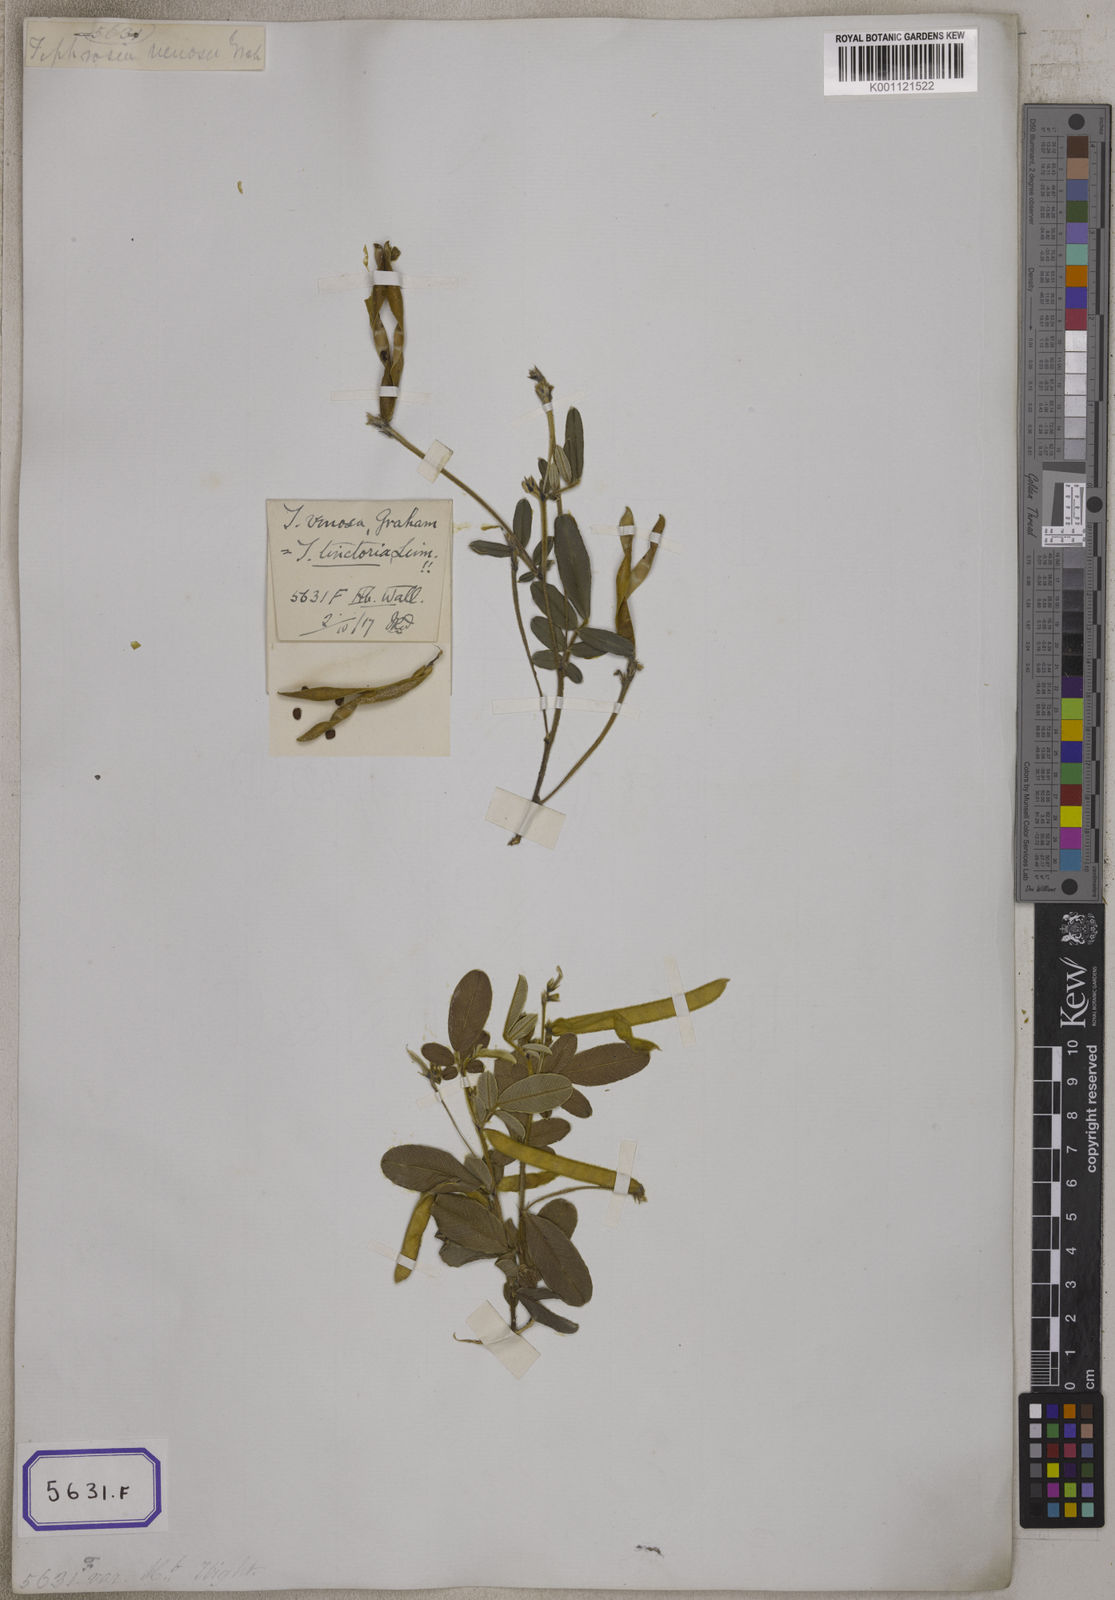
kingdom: Plantae
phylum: Tracheophyta
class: Magnoliopsida
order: Fabales
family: Fabaceae
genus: Tephrosia
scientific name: Tephrosia
